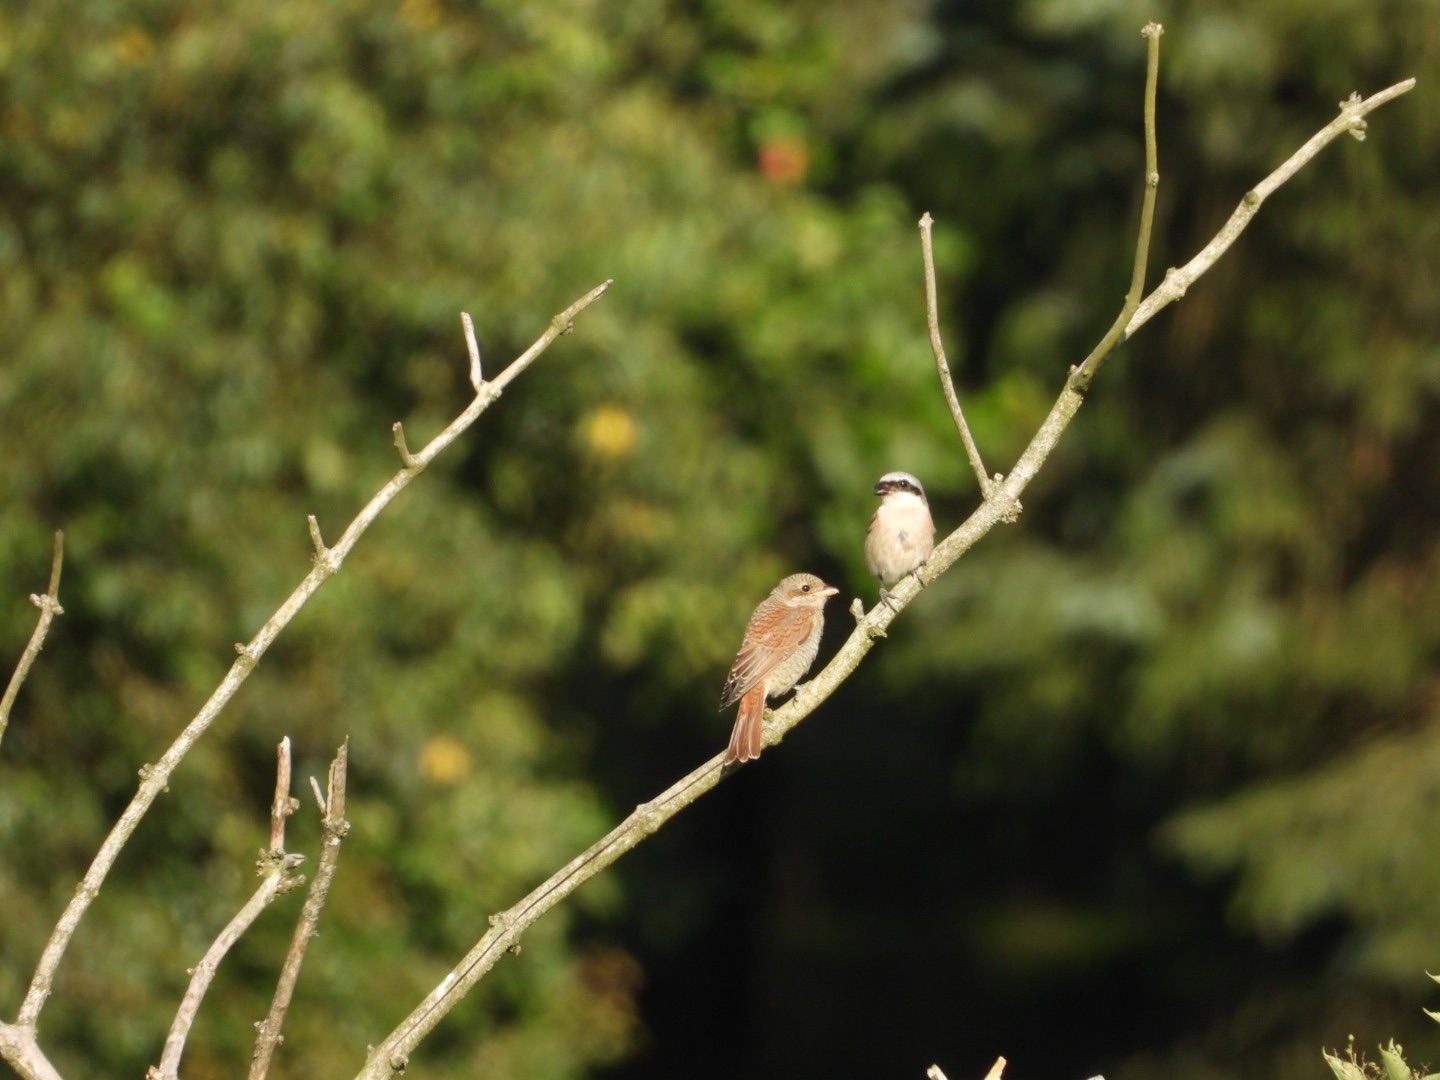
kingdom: Animalia
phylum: Chordata
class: Aves
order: Passeriformes
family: Laniidae
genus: Lanius
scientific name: Lanius collurio
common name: Rødrygget tornskade
